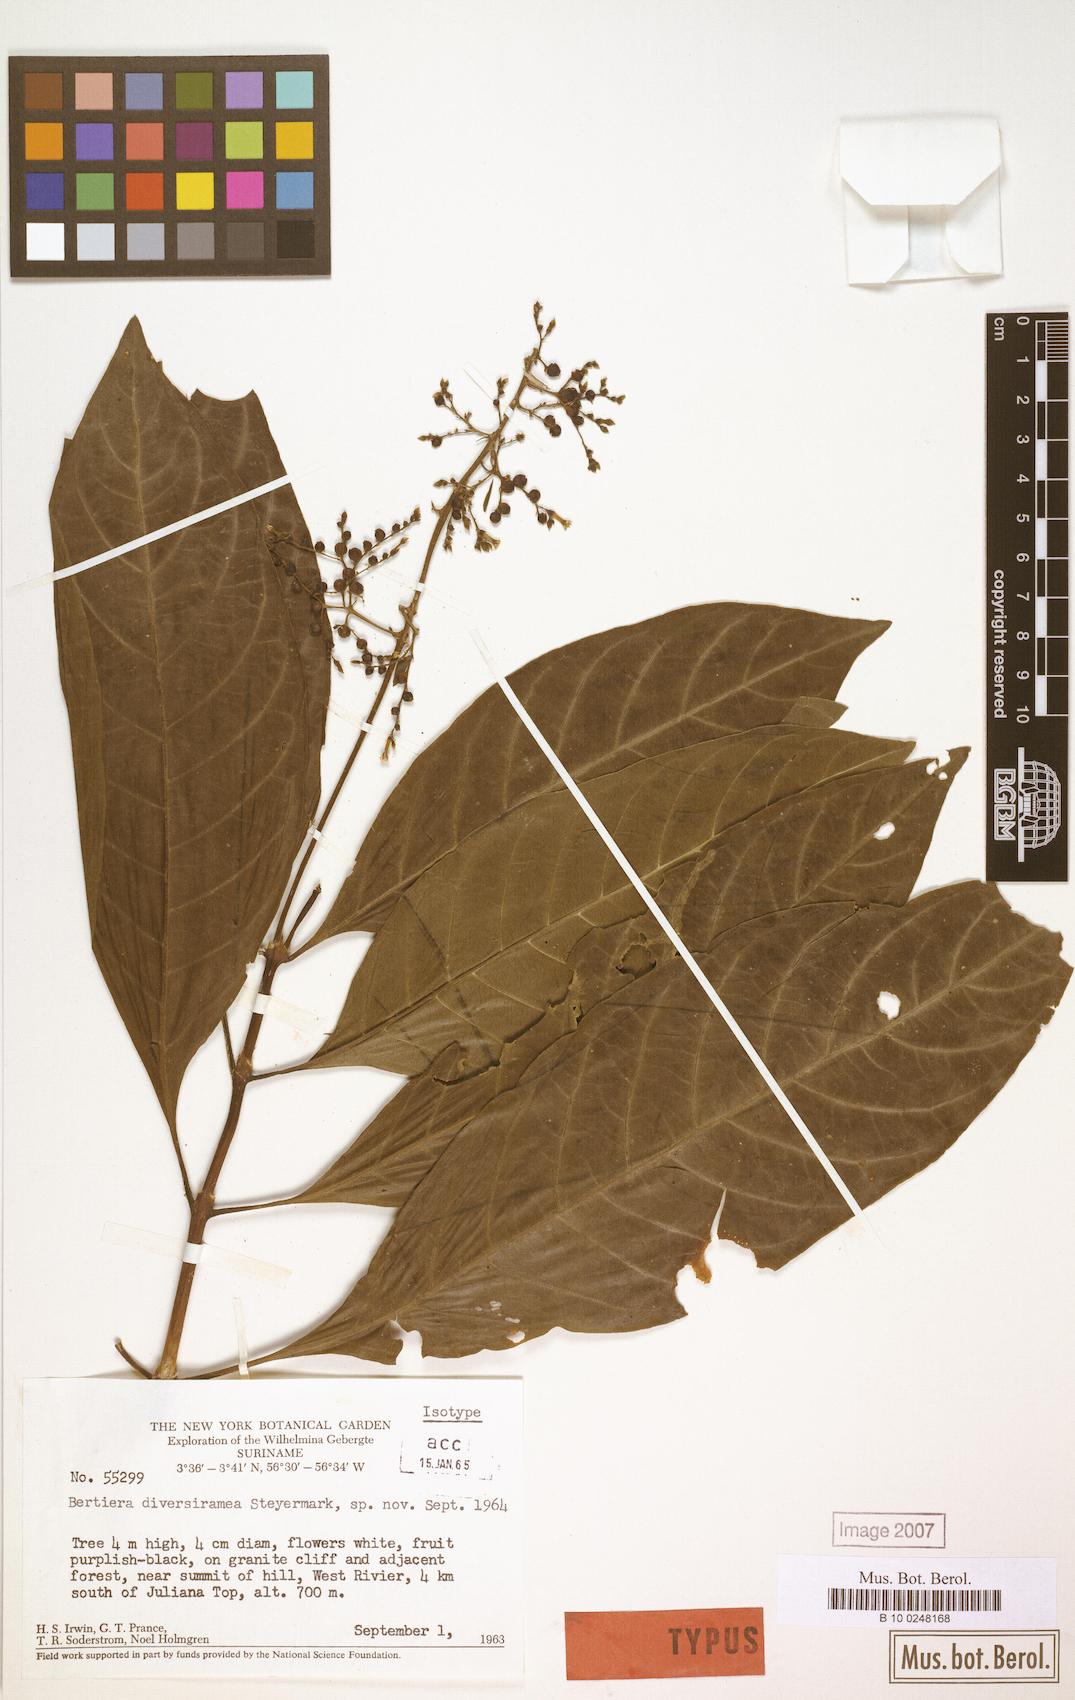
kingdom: Plantae
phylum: Tracheophyta
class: Magnoliopsida
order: Gentianales
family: Rubiaceae
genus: Bertiera
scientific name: Bertiera guianensis
